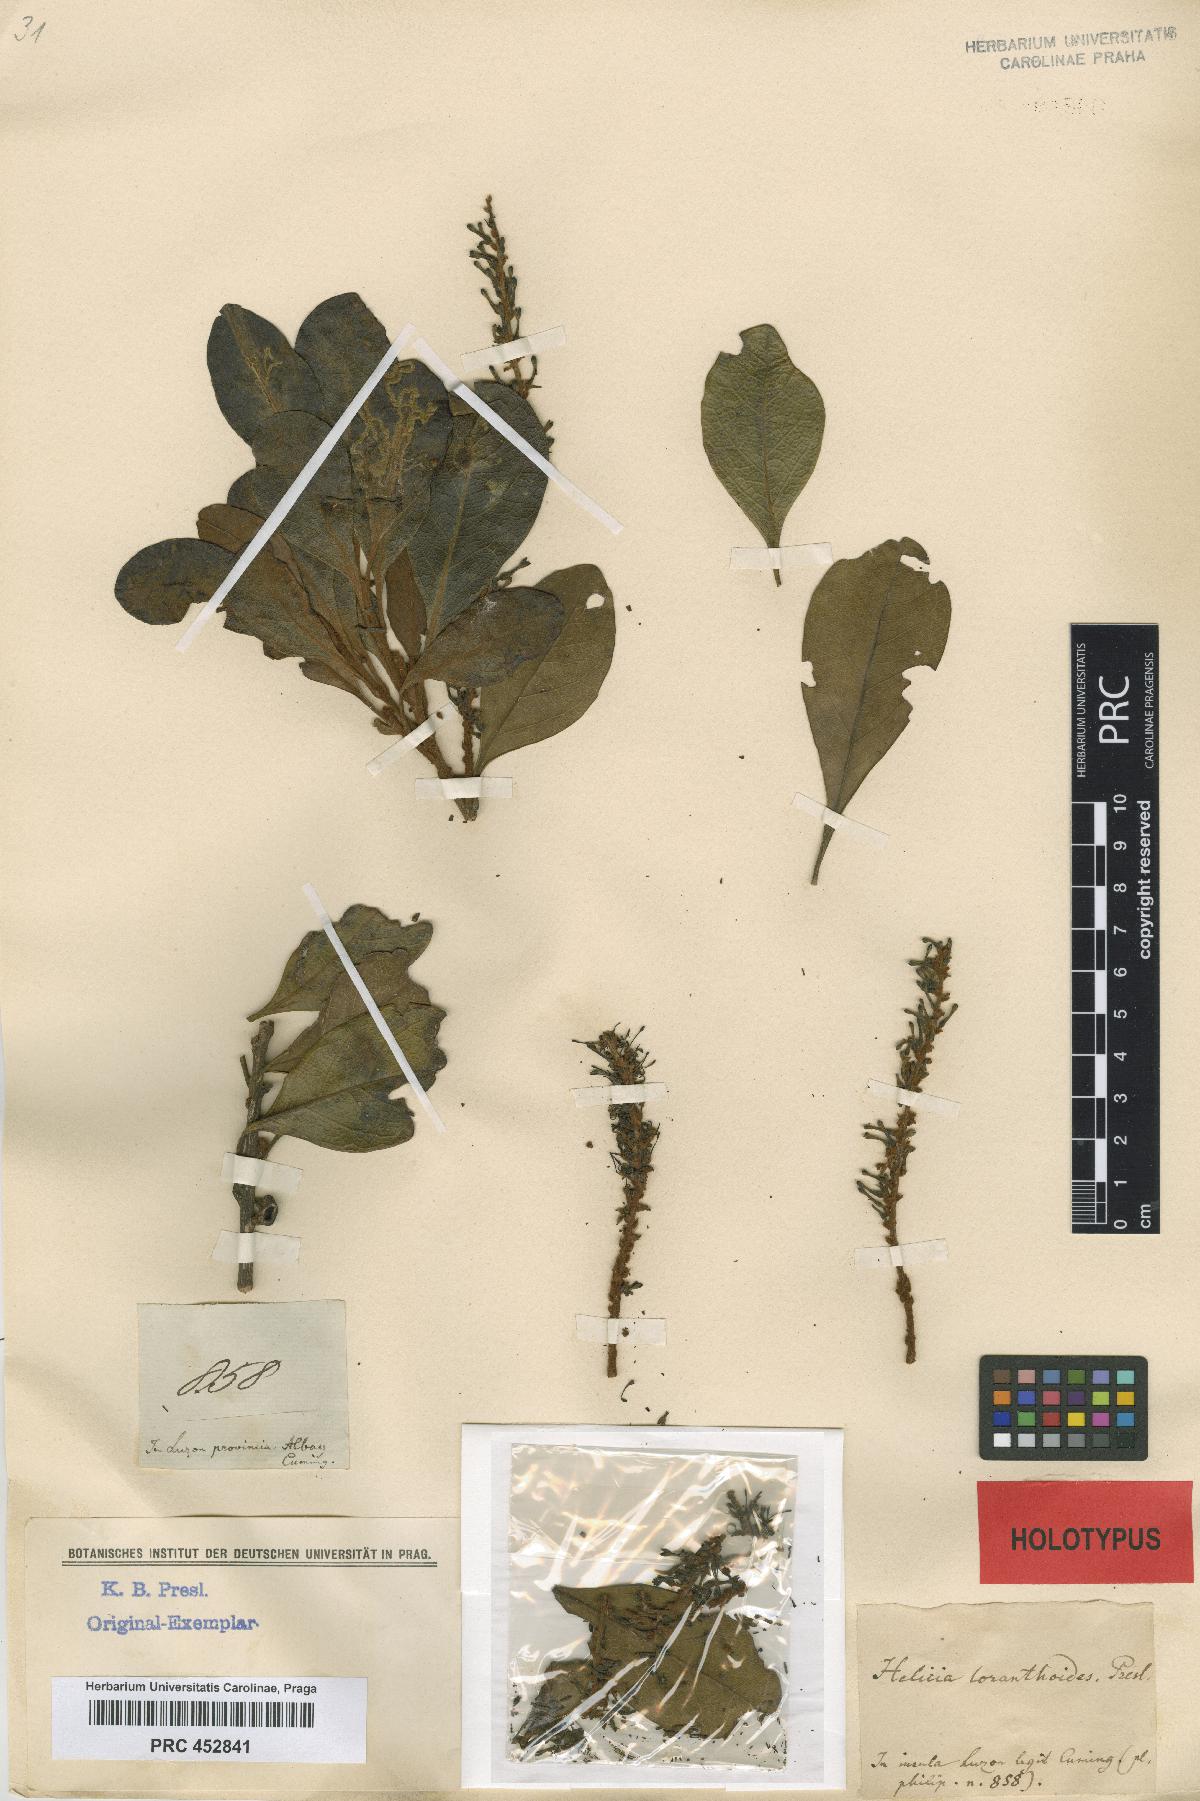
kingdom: Plantae
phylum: Tracheophyta
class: Magnoliopsida
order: Proteales
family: Proteaceae
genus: Helicia
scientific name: Helicia loranthoides
